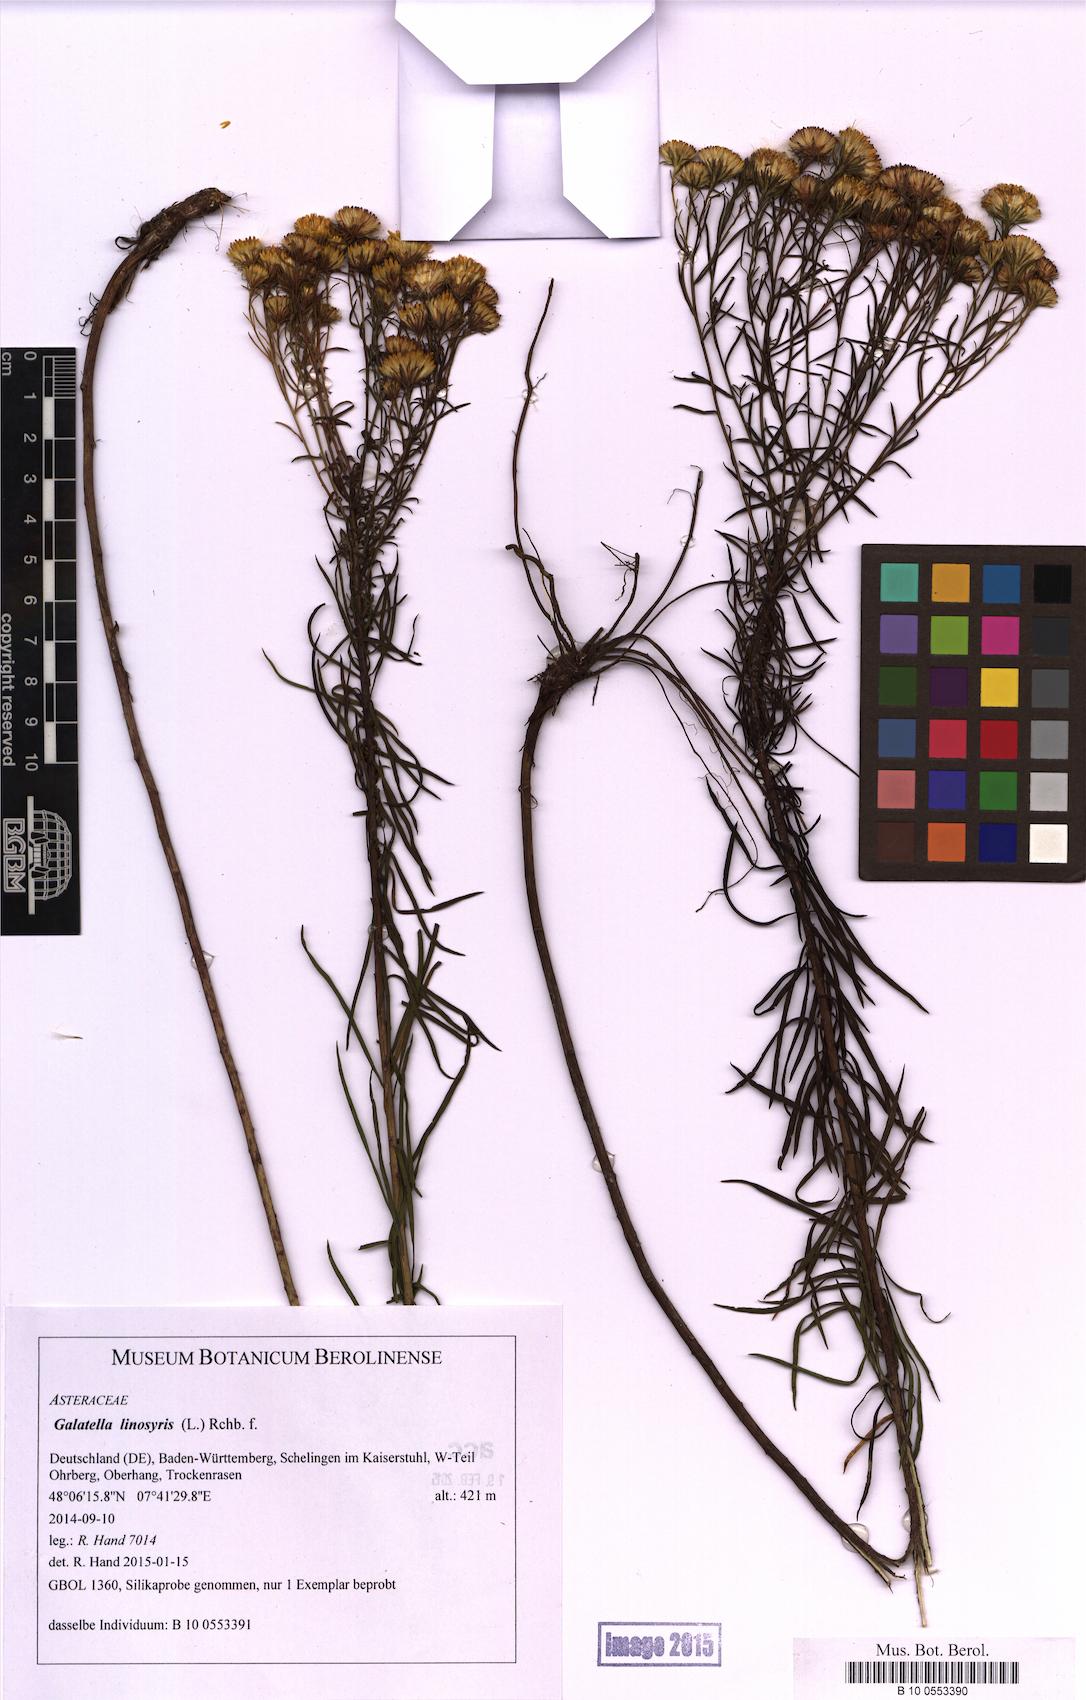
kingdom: Plantae
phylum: Tracheophyta
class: Magnoliopsida
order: Asterales
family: Asteraceae
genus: Galatella
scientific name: Galatella linosyris
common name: Goldilocks aster
